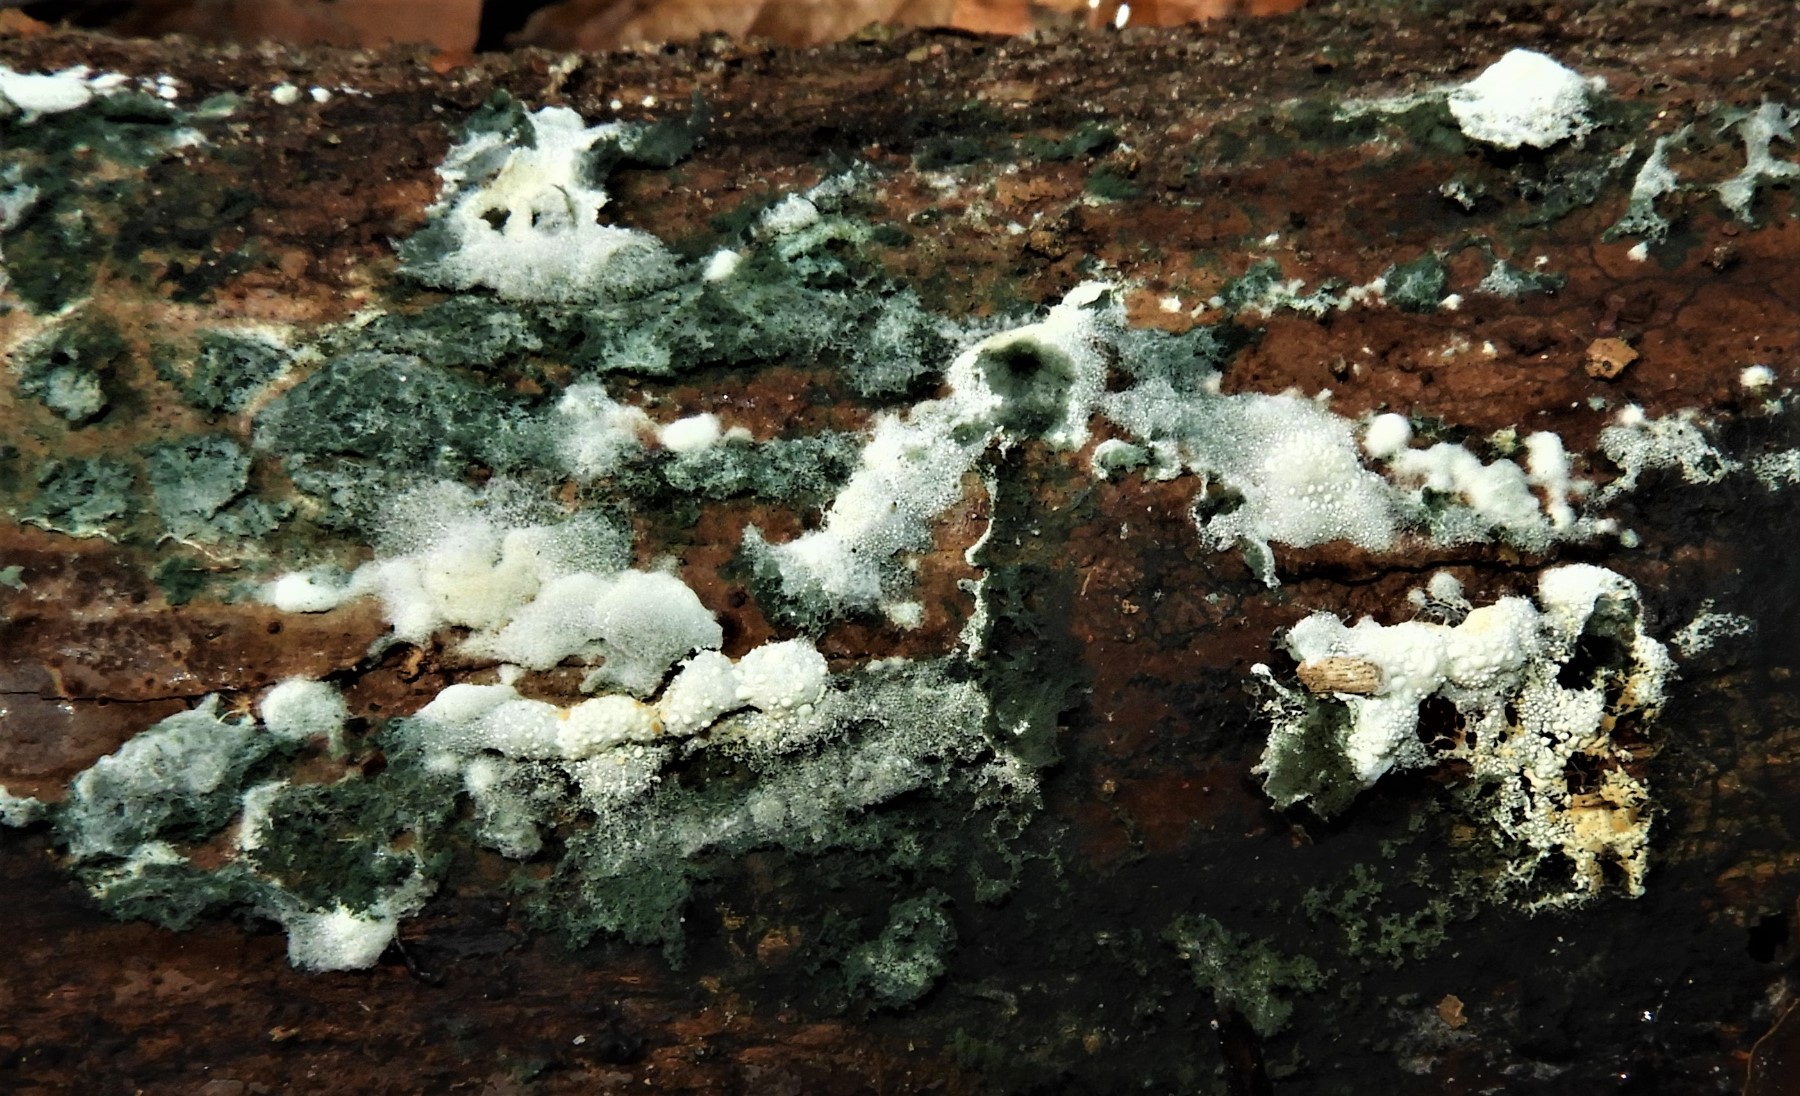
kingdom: Fungi
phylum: Ascomycota
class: Sordariomycetes
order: Hypocreales
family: Hypocreaceae
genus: Trichoderma
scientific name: Trichoderma
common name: kødkerne
